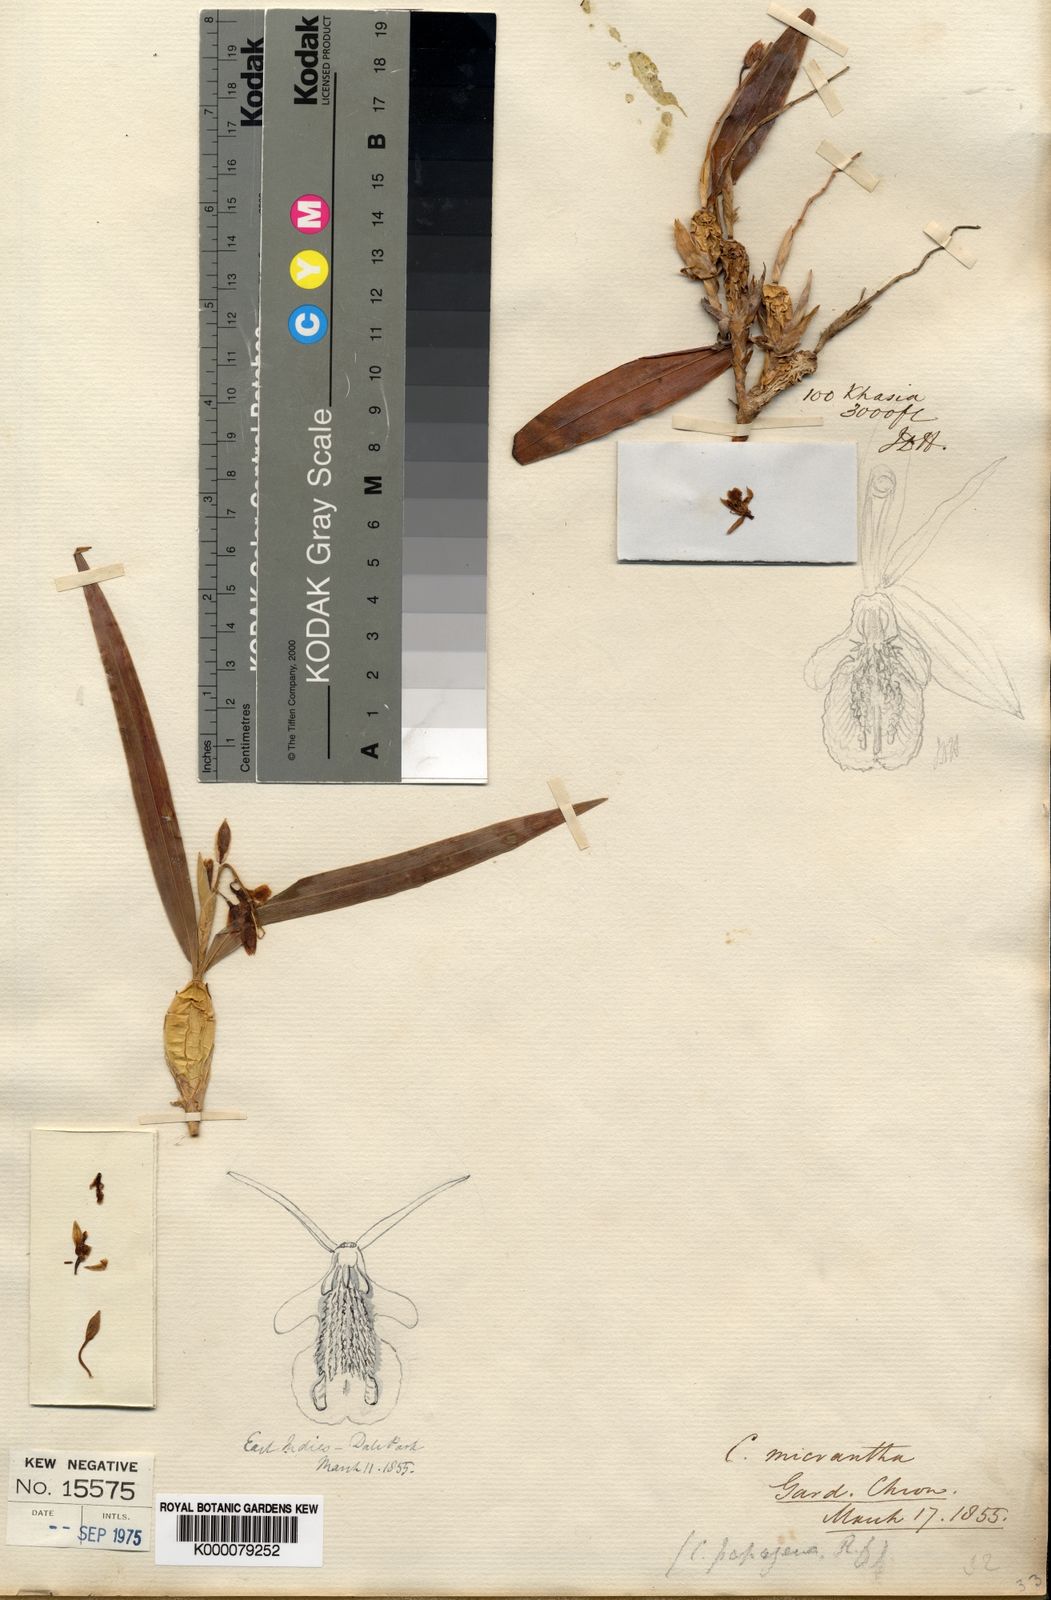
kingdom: Plantae
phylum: Tracheophyta
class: Liliopsida
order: Asparagales
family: Orchidaceae
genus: Coelogyne
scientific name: Coelogyne micrantha
